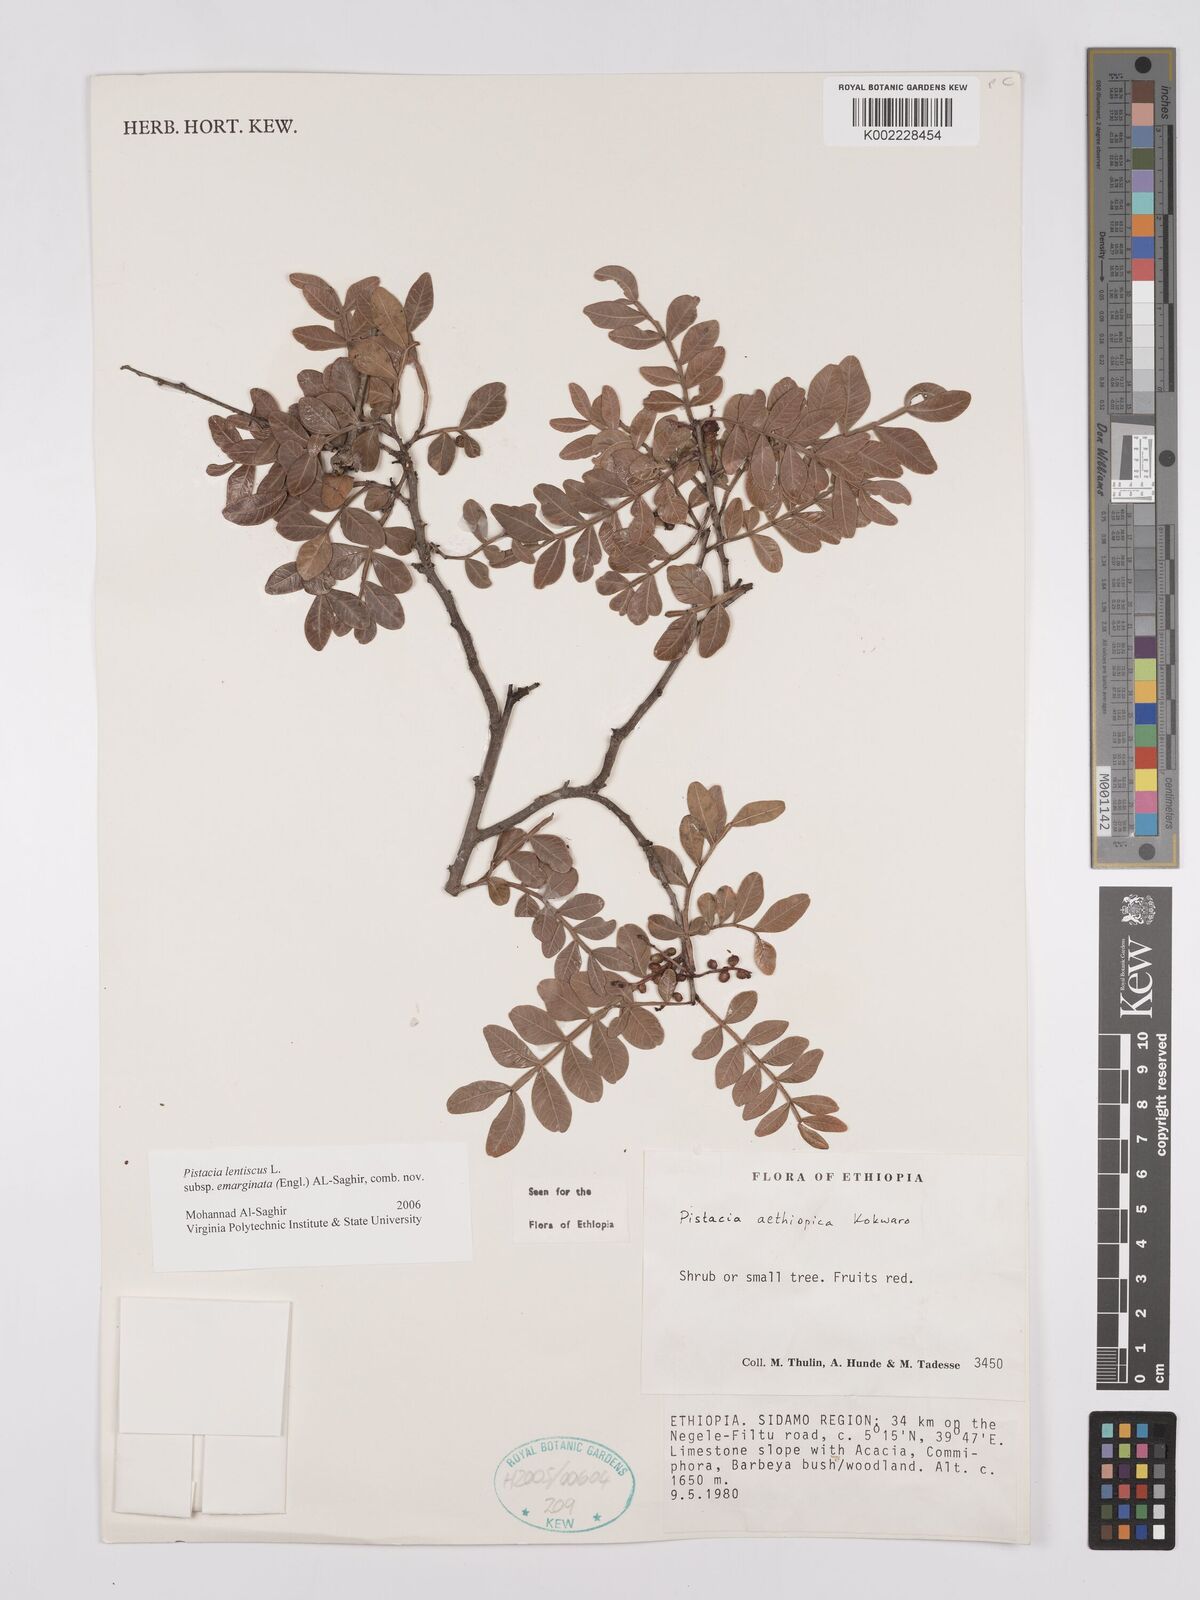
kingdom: Plantae
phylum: Tracheophyta
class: Magnoliopsida
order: Sapindales
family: Anacardiaceae
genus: Pistacia
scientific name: Pistacia lentiscus
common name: Lentisk
